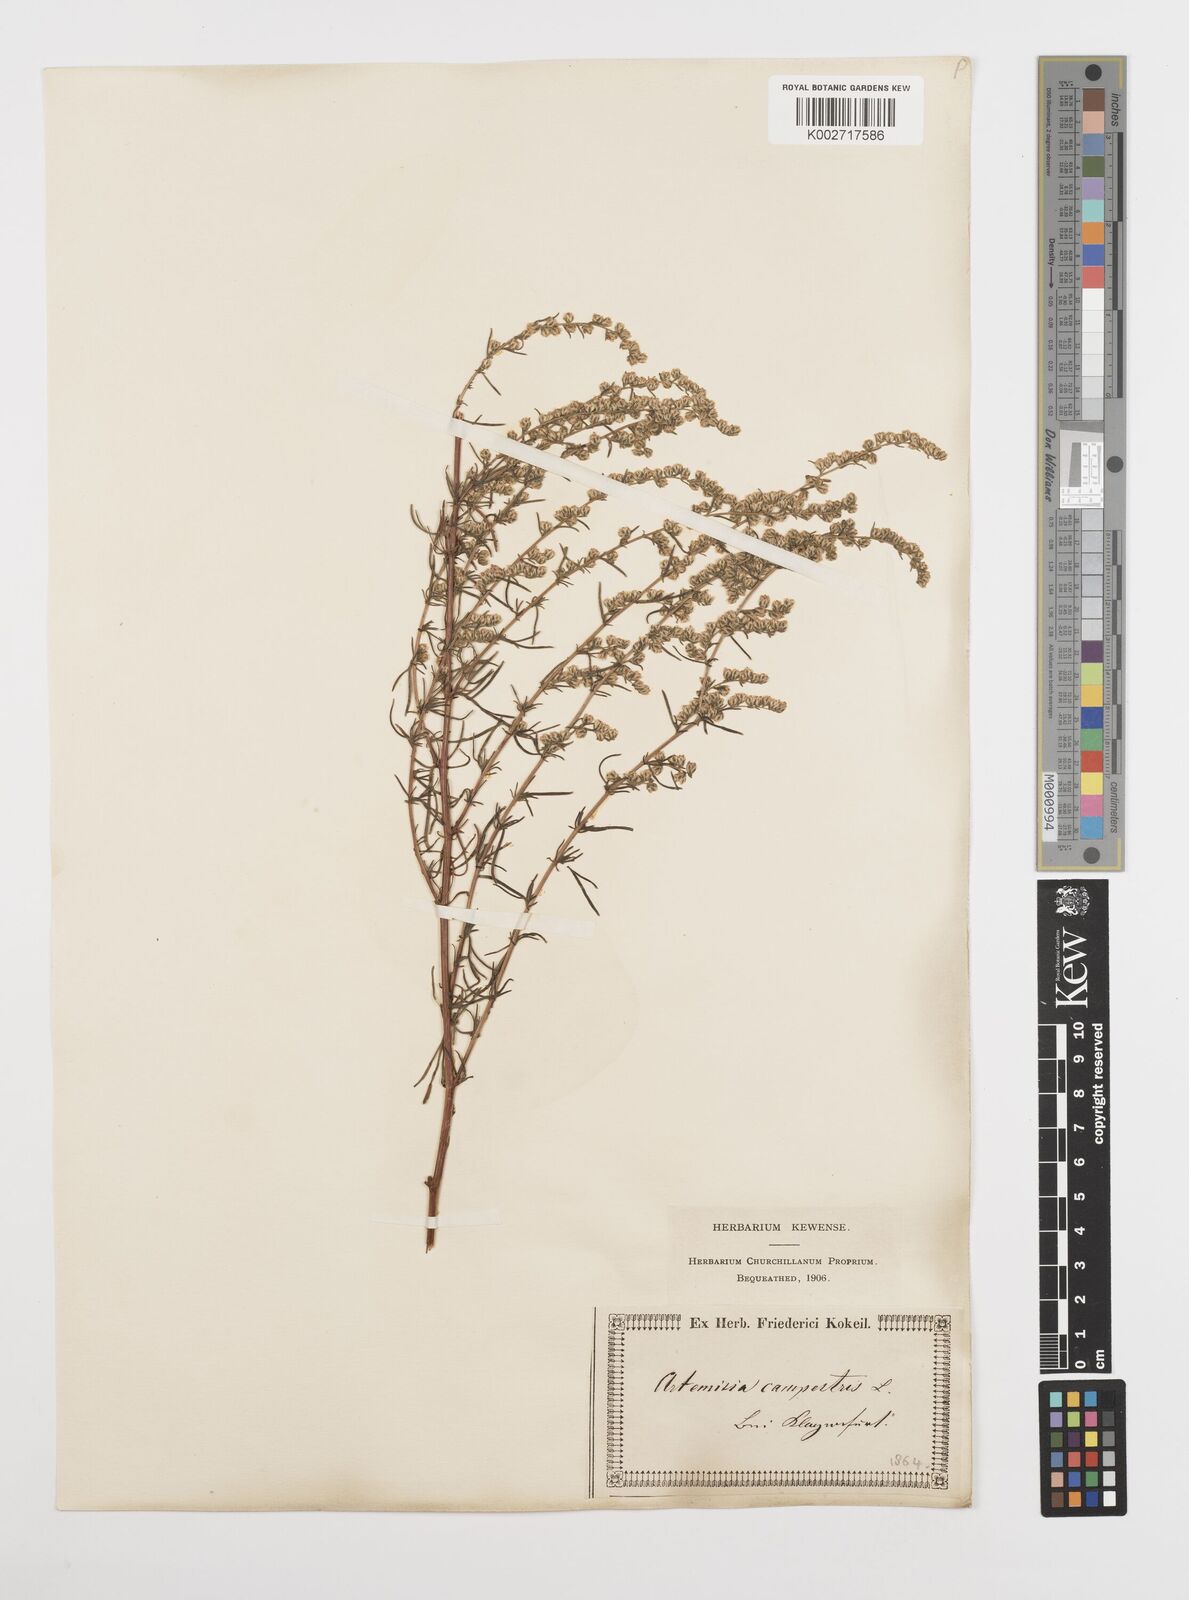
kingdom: Plantae
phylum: Tracheophyta
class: Magnoliopsida
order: Asterales
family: Asteraceae
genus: Artemisia
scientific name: Artemisia campestris
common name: Field wormwood
